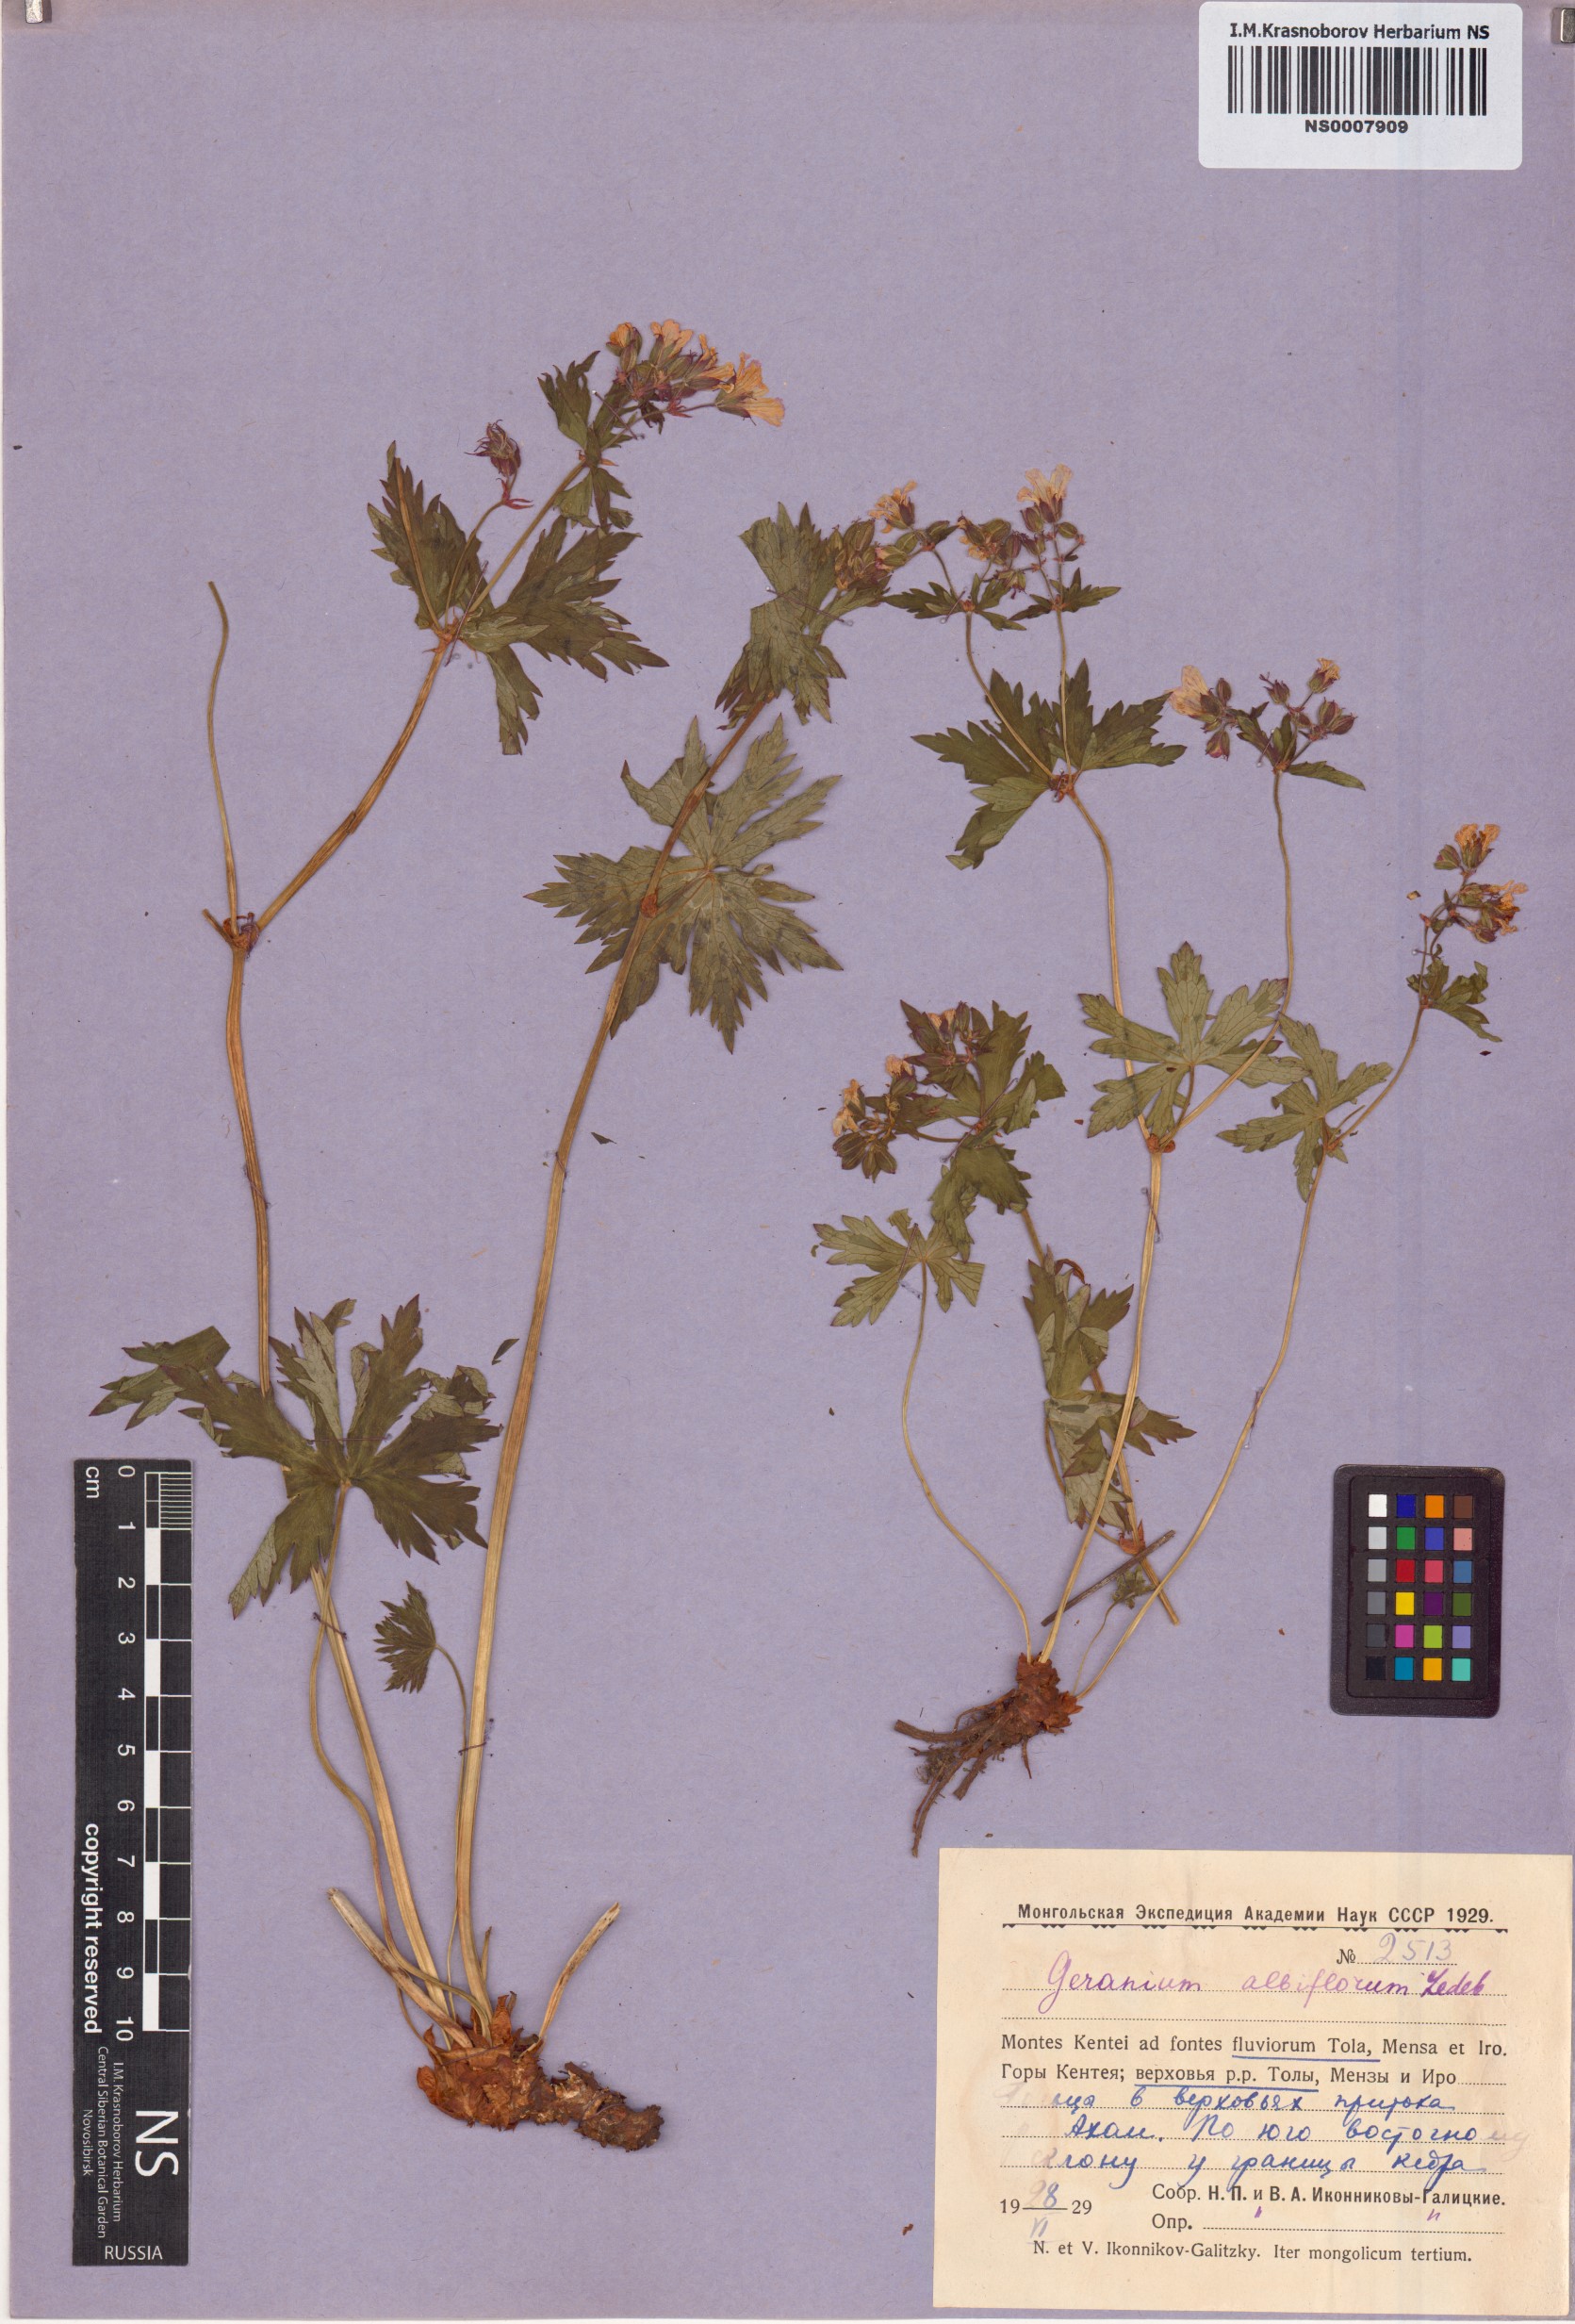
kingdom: Plantae
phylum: Tracheophyta
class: Magnoliopsida
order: Geraniales
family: Geraniaceae
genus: Geranium
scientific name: Geranium albiflorum
